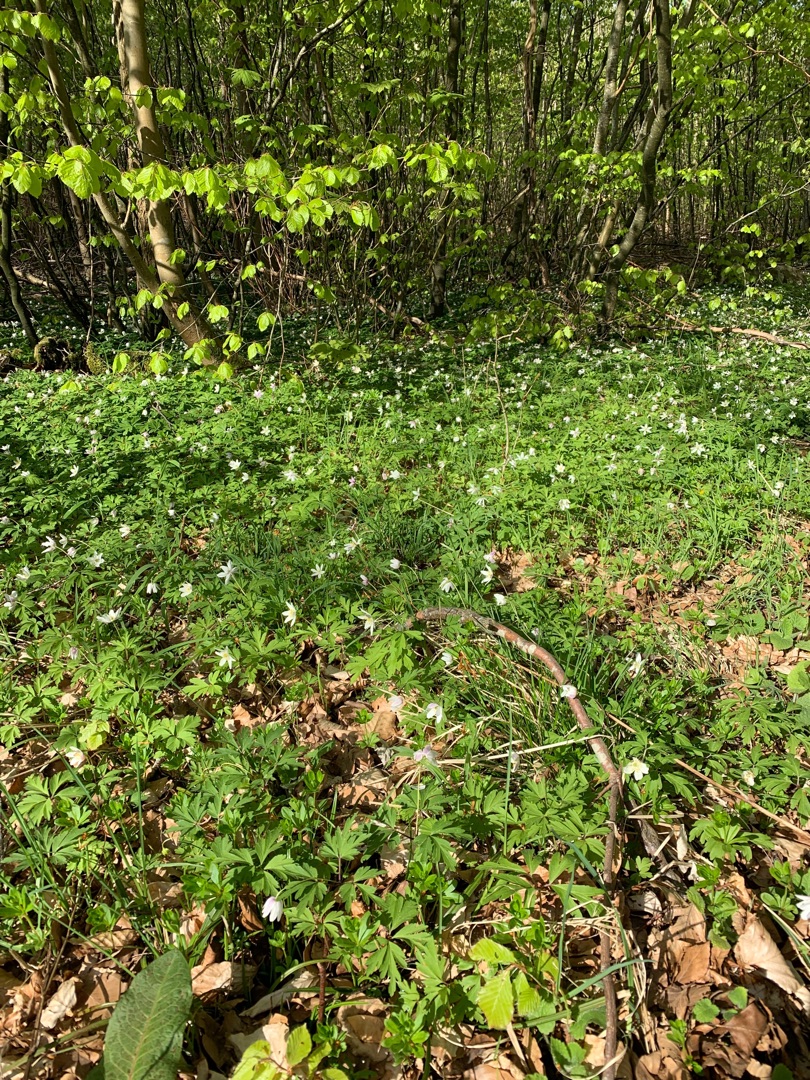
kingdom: Plantae
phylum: Tracheophyta
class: Magnoliopsida
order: Ranunculales
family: Ranunculaceae
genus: Anemone
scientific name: Anemone nemorosa
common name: Hvid anemone
